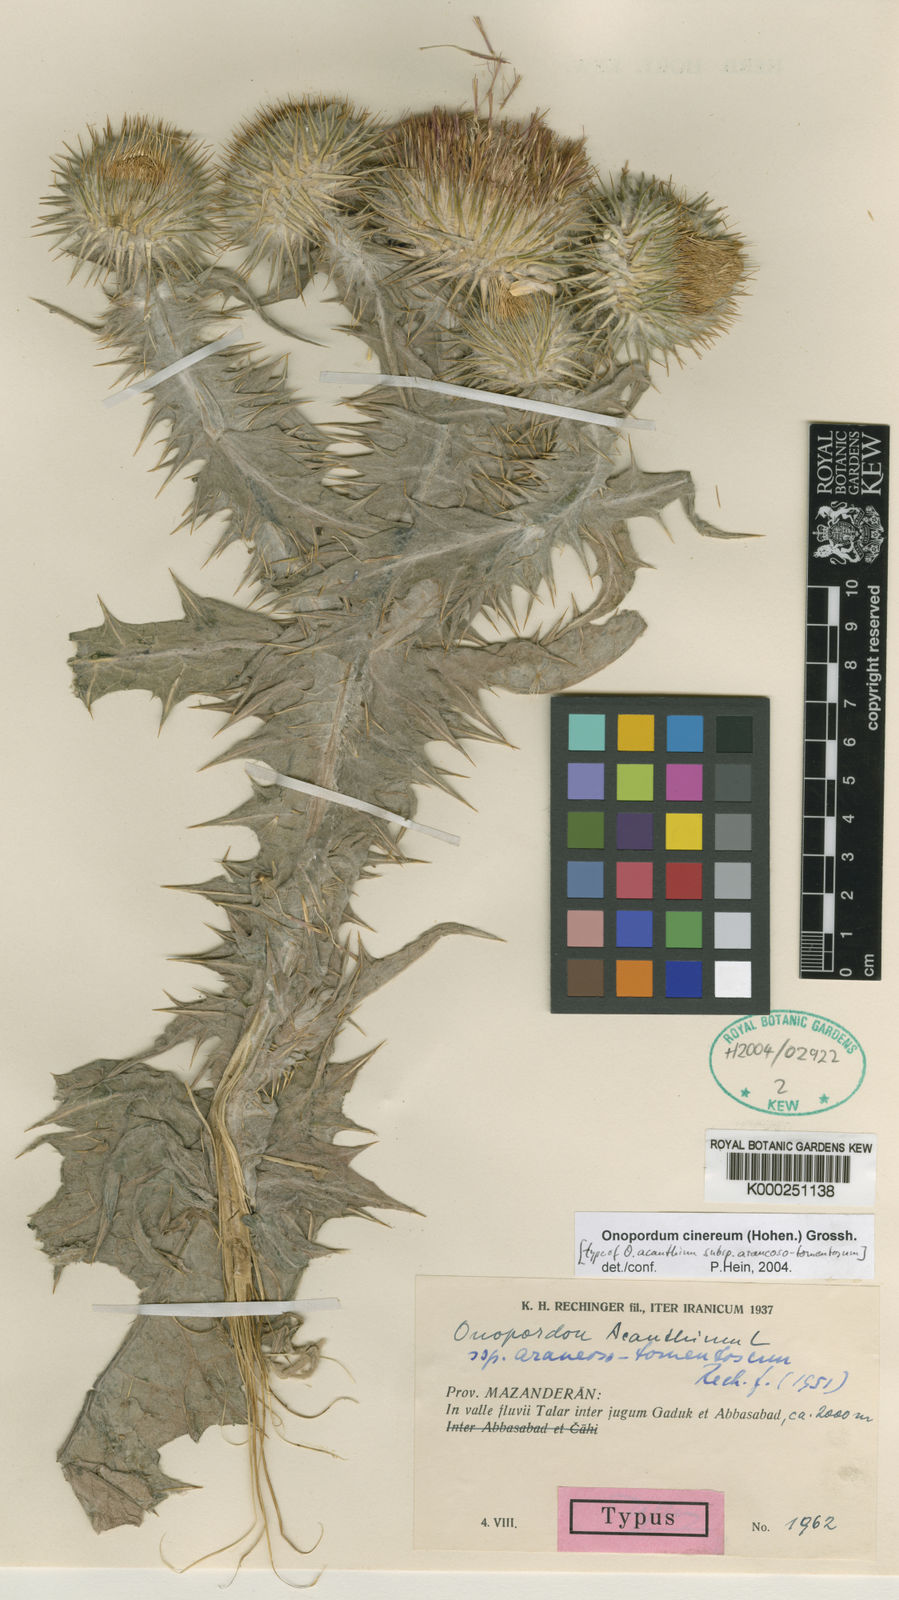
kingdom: Plantae
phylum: Tracheophyta
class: Magnoliopsida
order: Asterales
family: Asteraceae
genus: Onopordum
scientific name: Onopordum cinereum
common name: Ash-coloured scotch thistle
